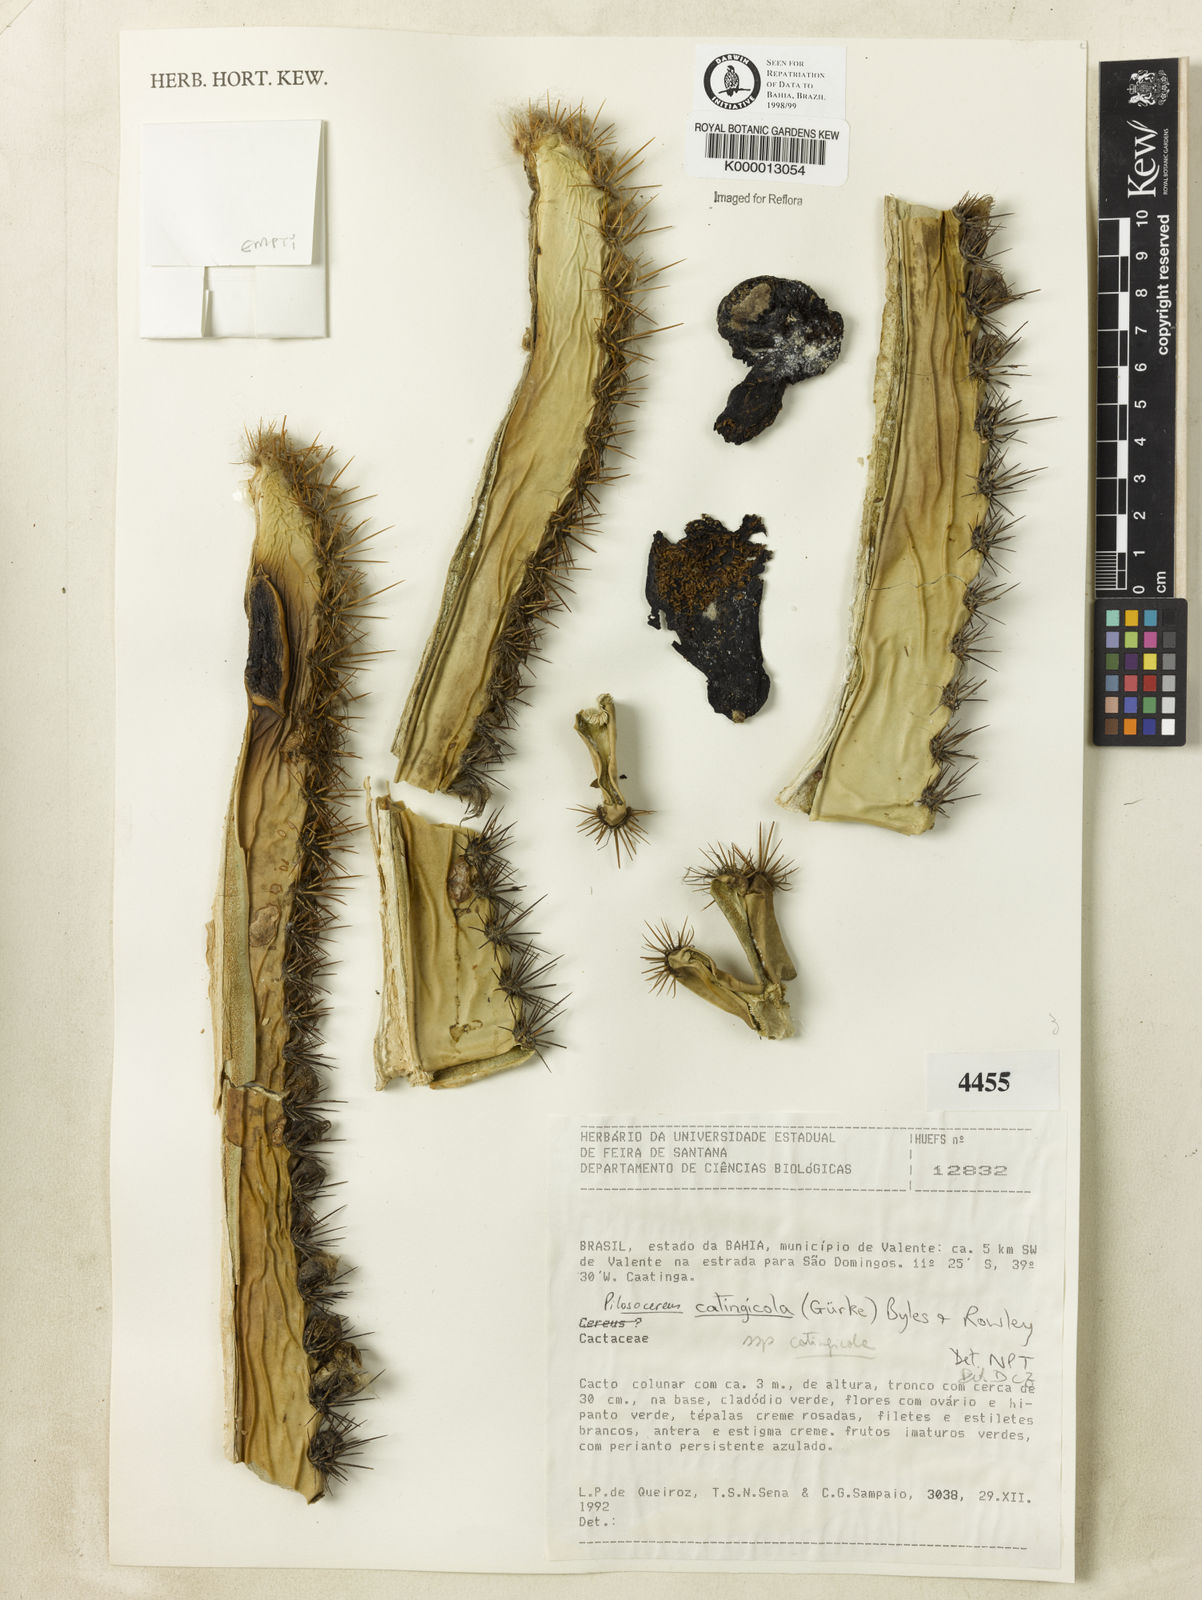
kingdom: Plantae
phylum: Tracheophyta
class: Magnoliopsida
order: Caryophyllales
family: Cactaceae
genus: Pilosocereus
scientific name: Pilosocereus catingicola
